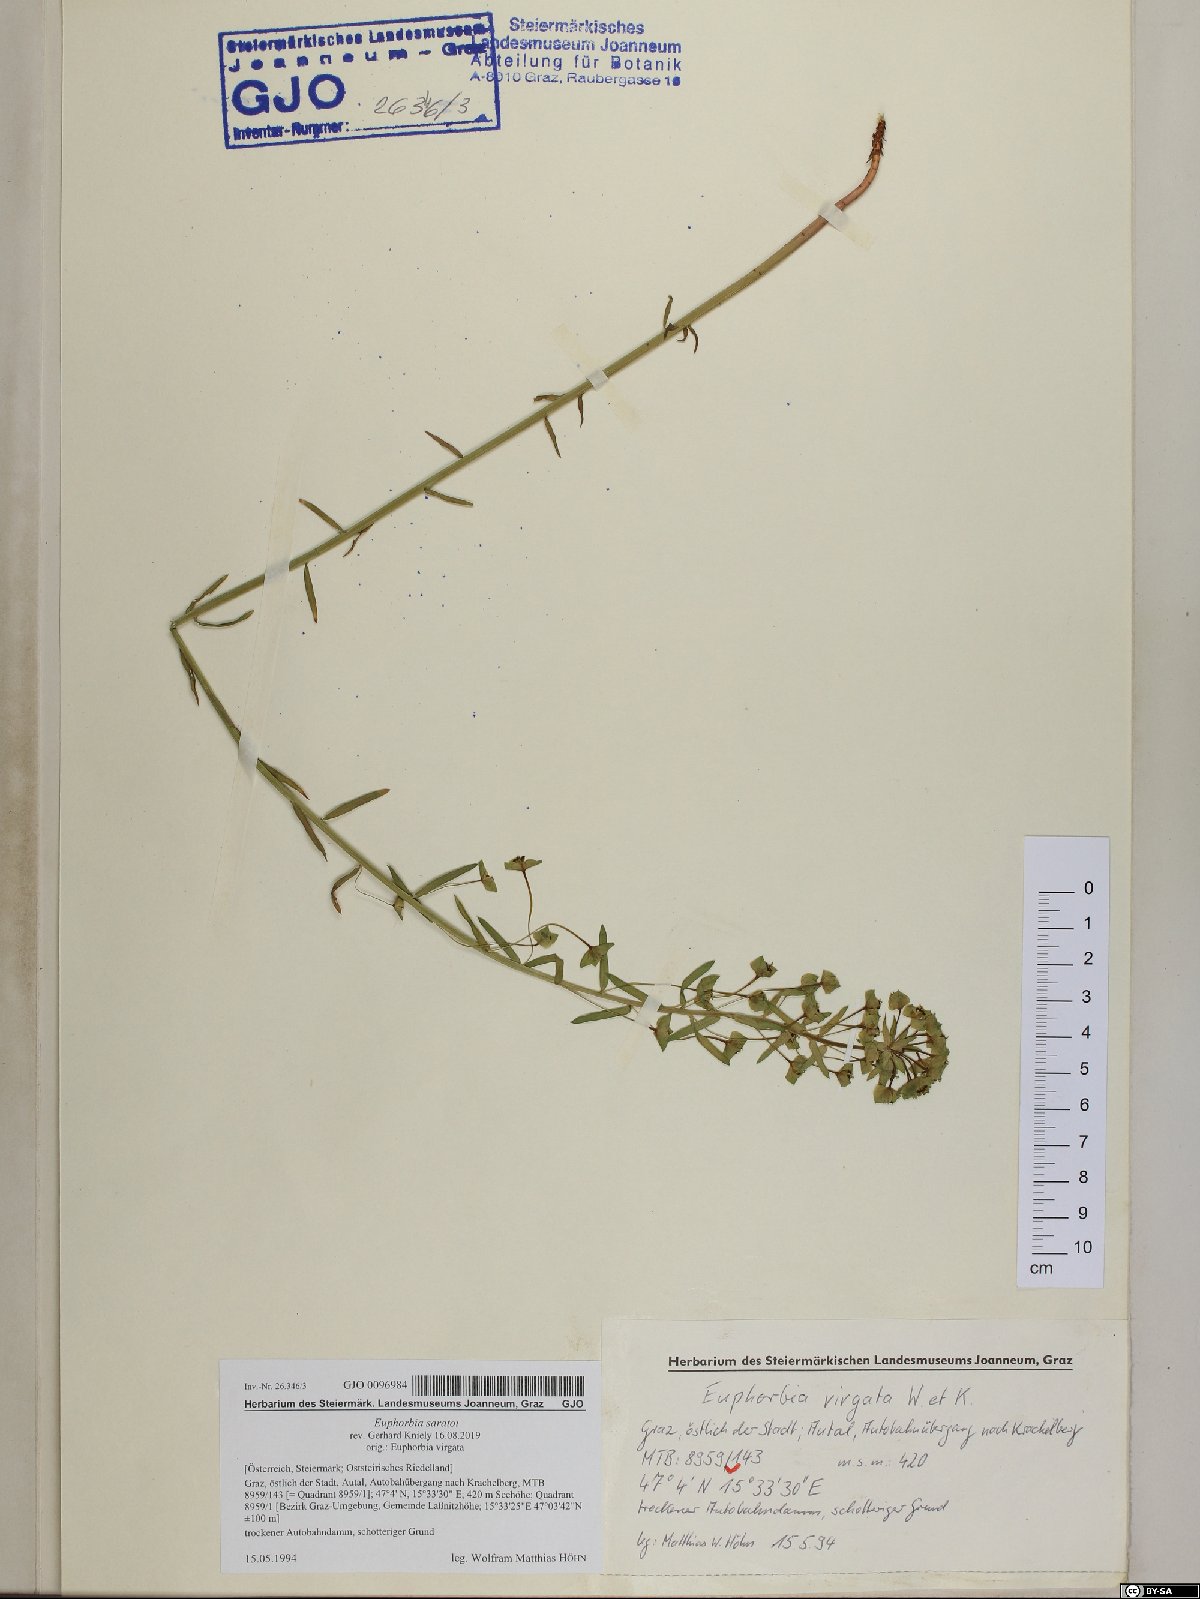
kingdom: Plantae
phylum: Tracheophyta
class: Magnoliopsida
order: Malpighiales
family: Euphorbiaceae
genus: Euphorbia
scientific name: Euphorbia saratoi
